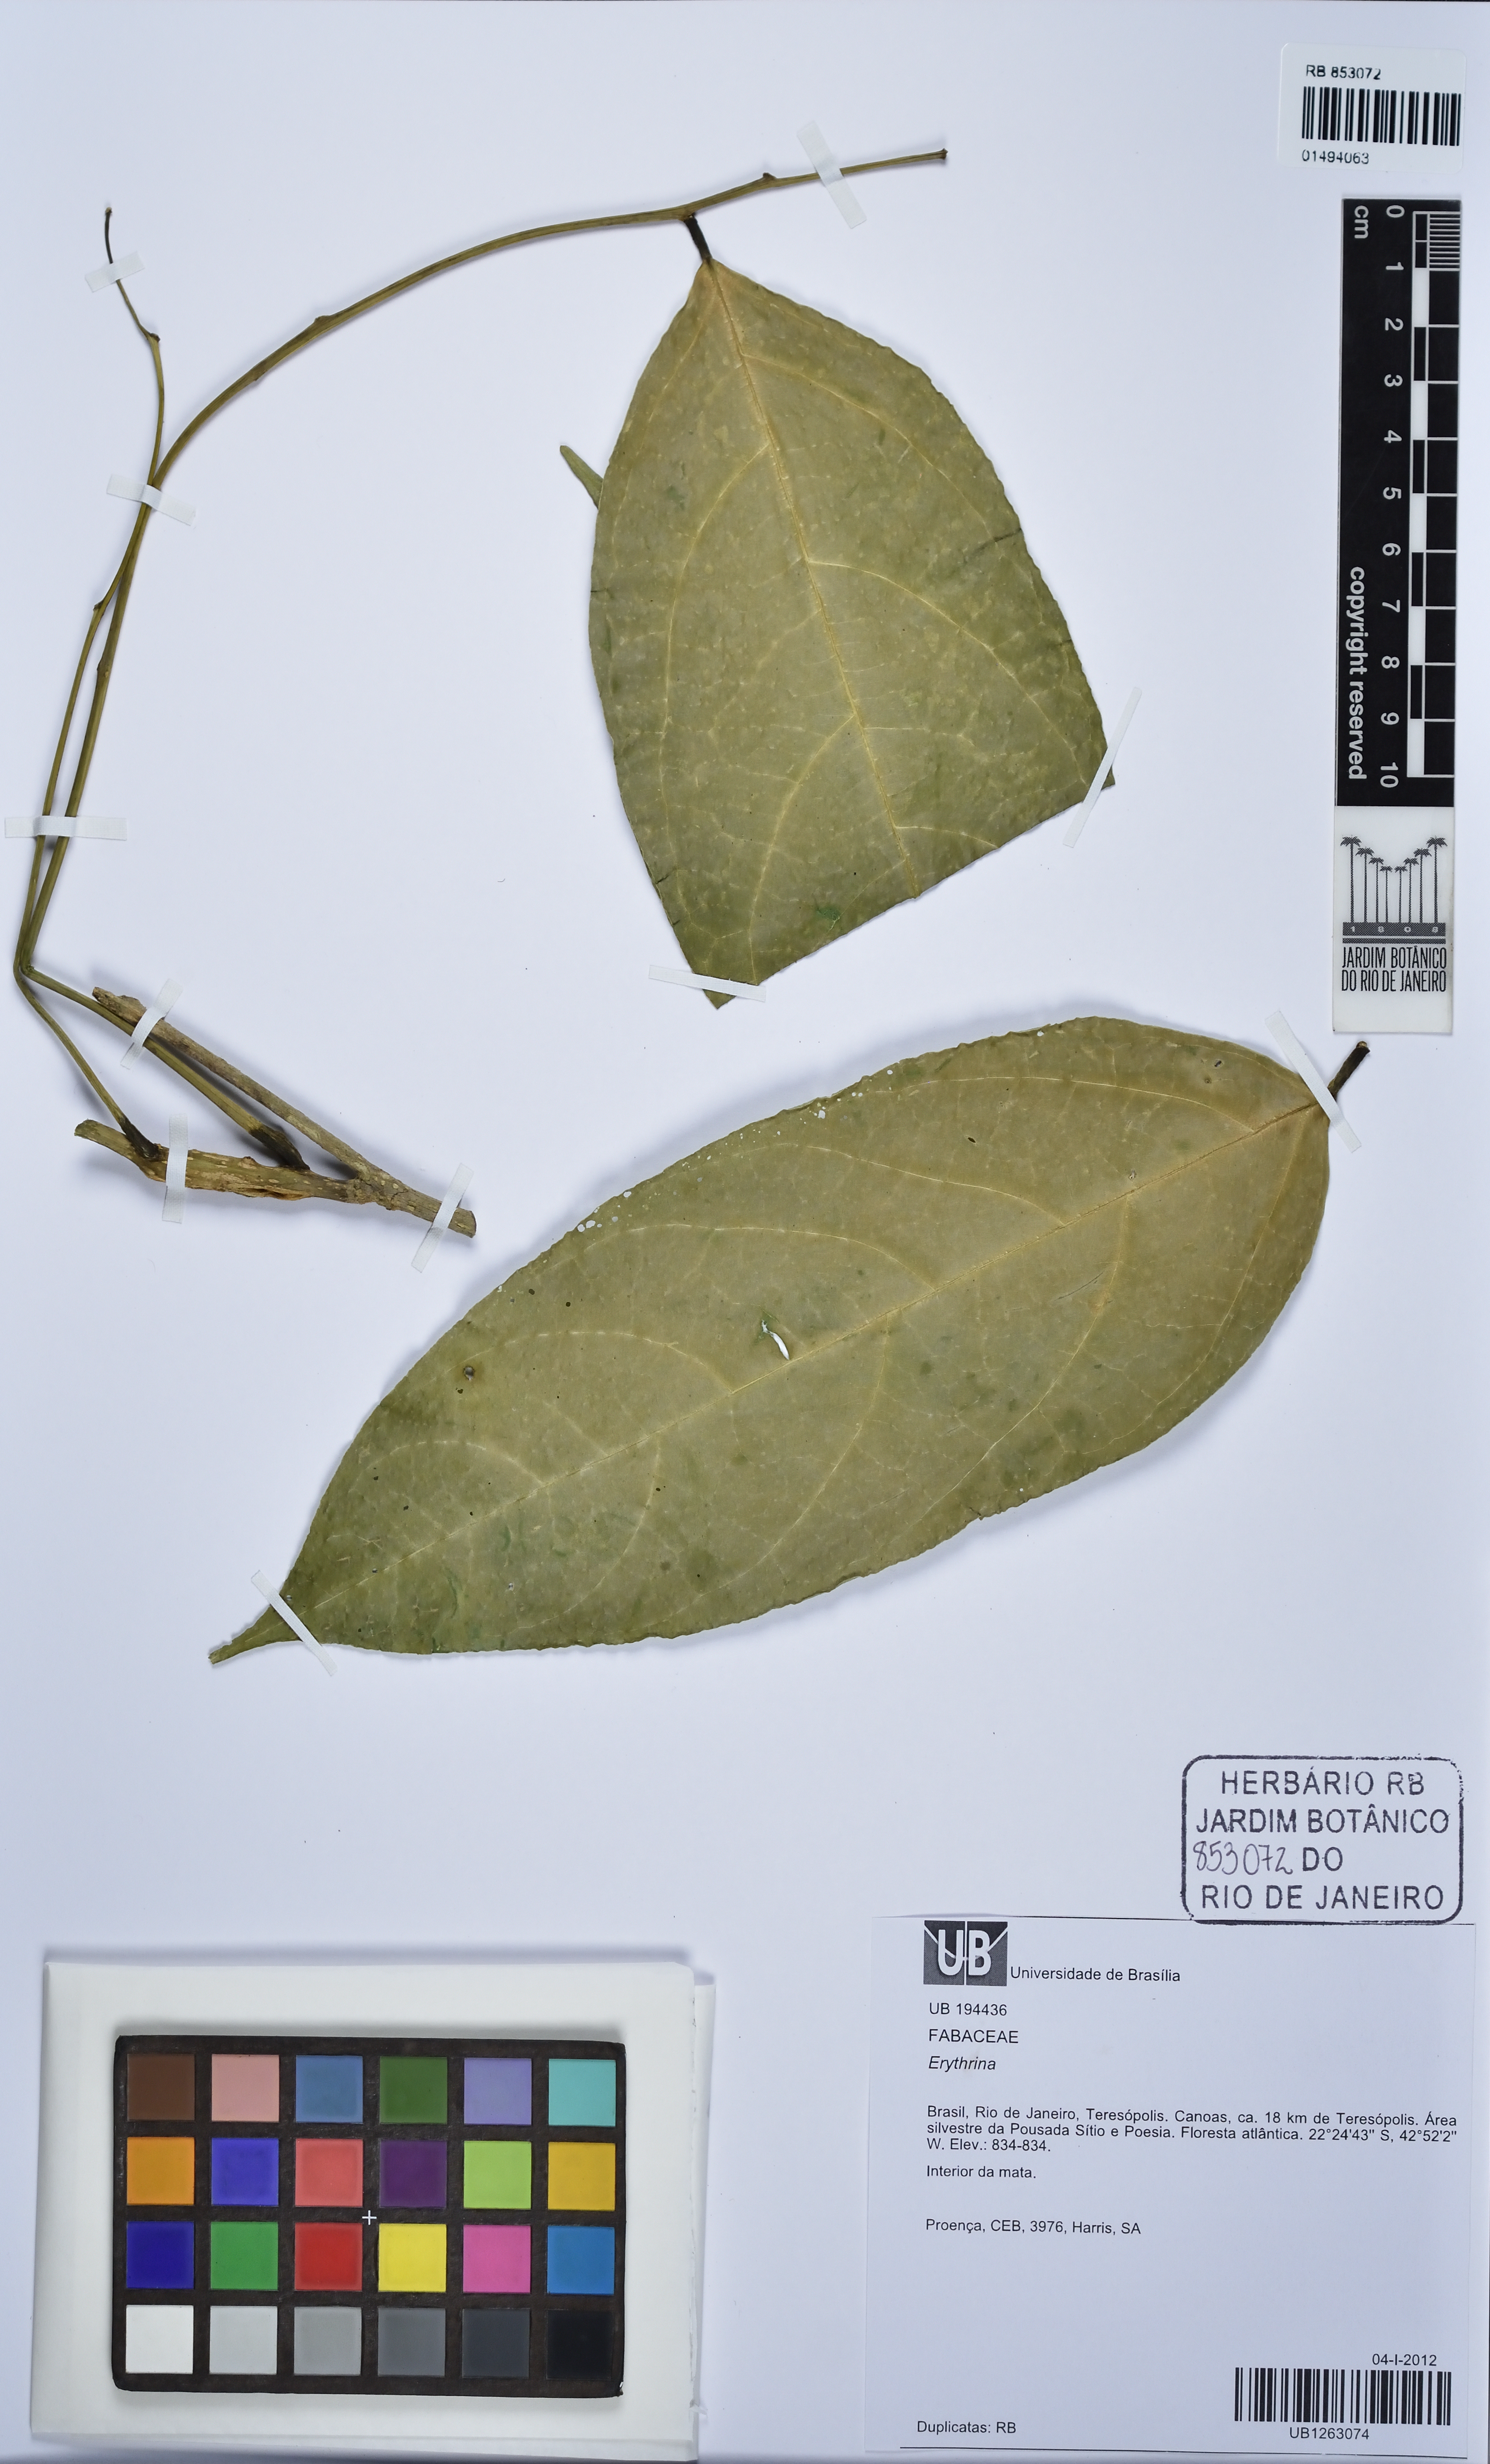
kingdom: Plantae
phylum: Tracheophyta
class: Magnoliopsida
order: Fabales
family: Fabaceae
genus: Erythrina
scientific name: Erythrina
